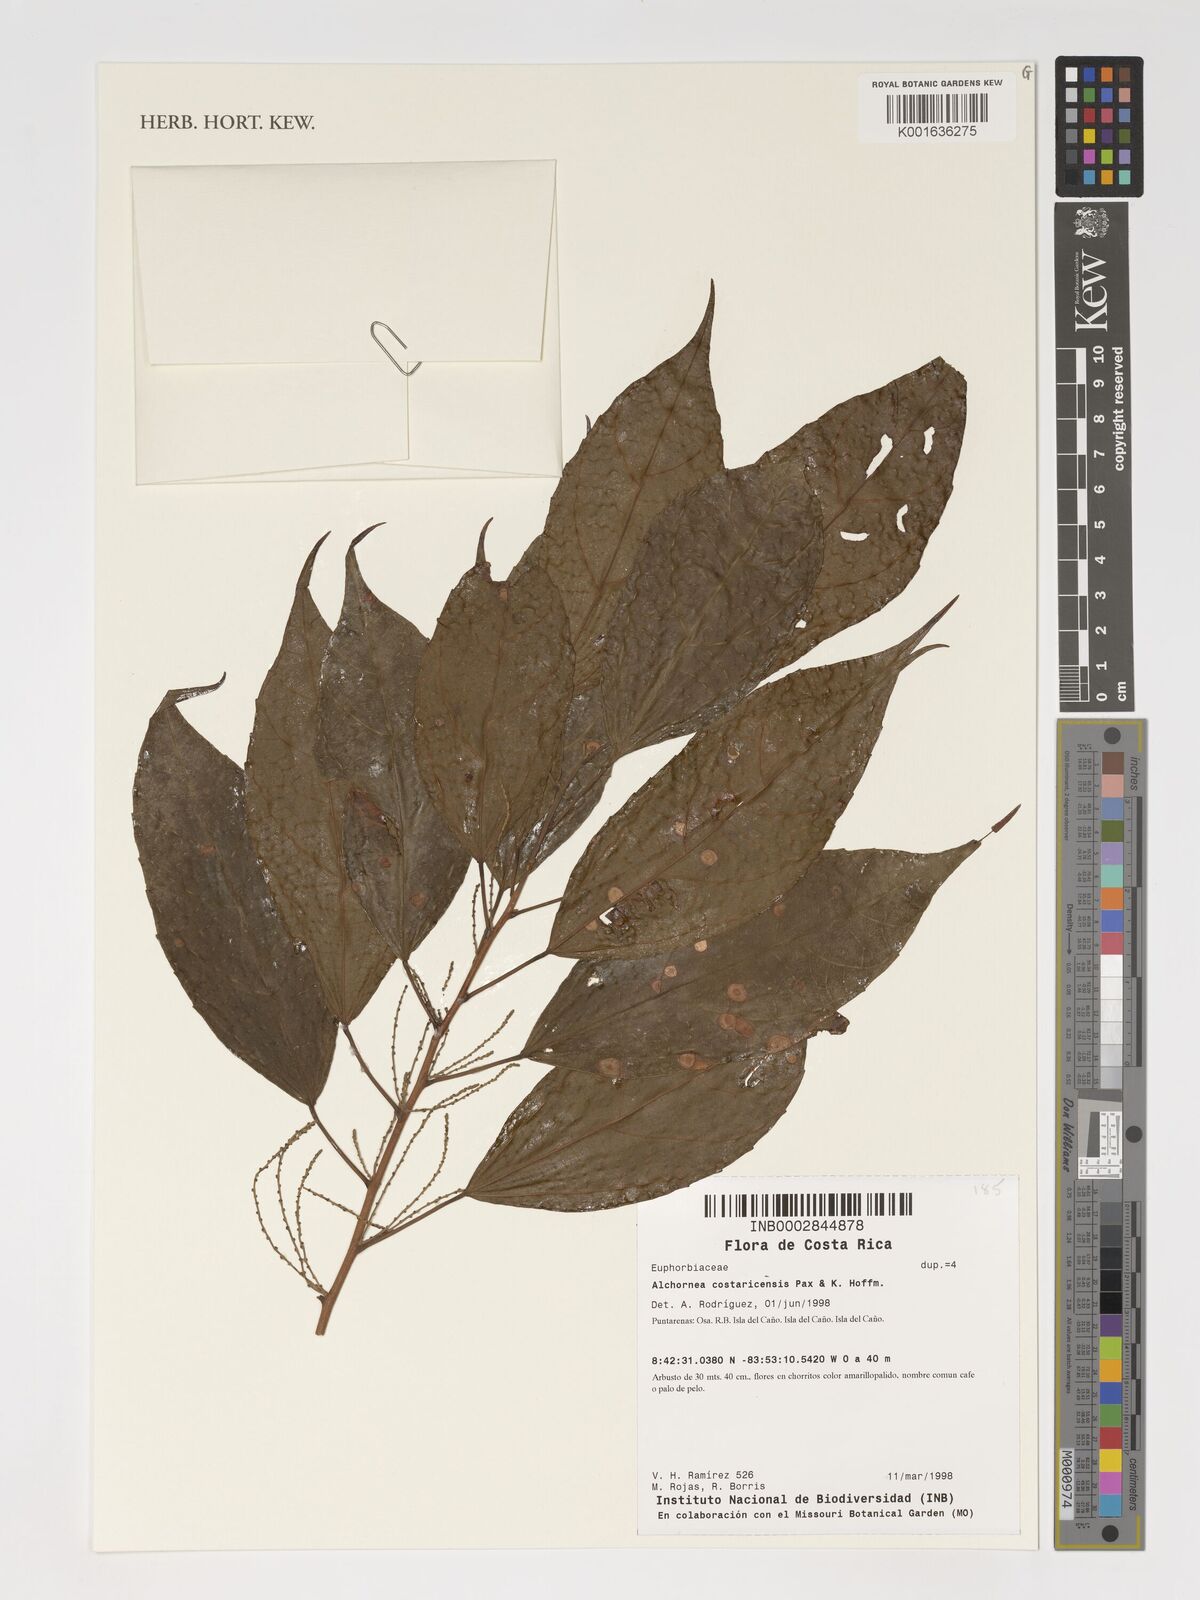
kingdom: Plantae
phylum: Tracheophyta
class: Magnoliopsida
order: Malpighiales
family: Euphorbiaceae
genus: Alchornea
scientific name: Alchornea costaricensis
